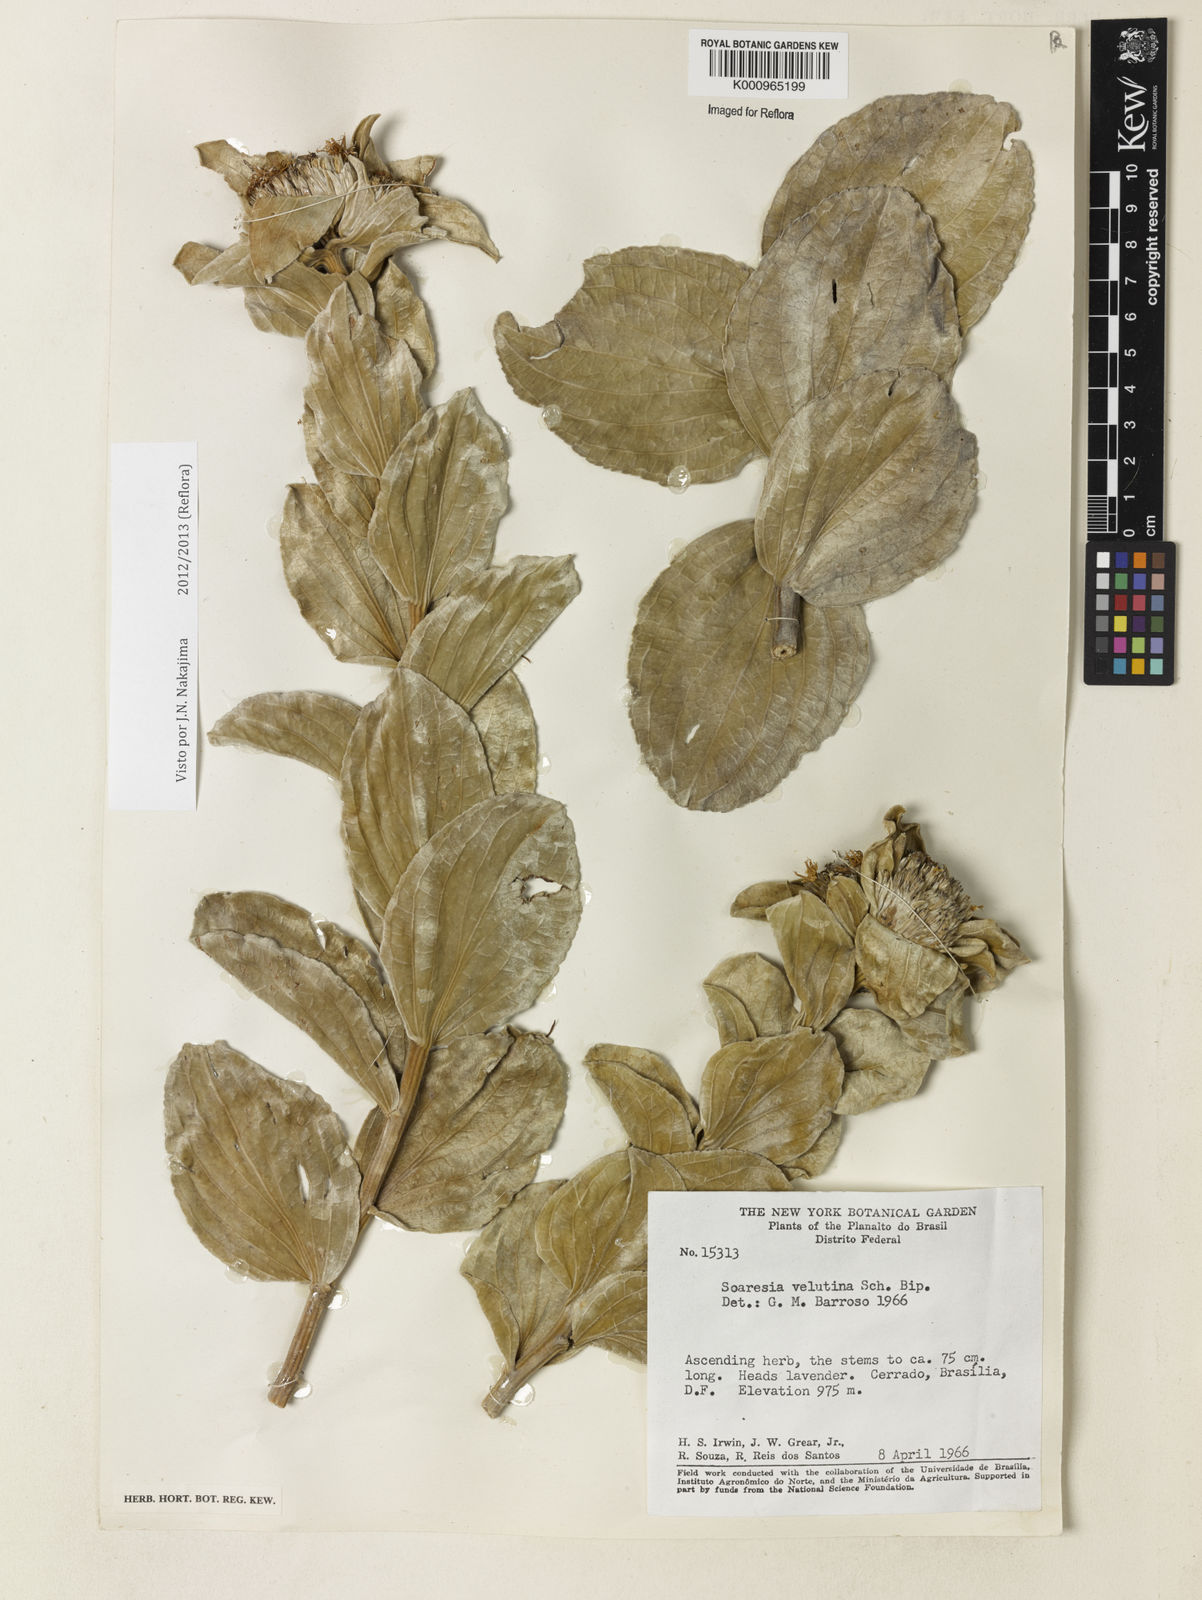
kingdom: Plantae
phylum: Tracheophyta
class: Magnoliopsida
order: Asterales
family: Asteraceae
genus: Soaresia
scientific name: Soaresia velutina
